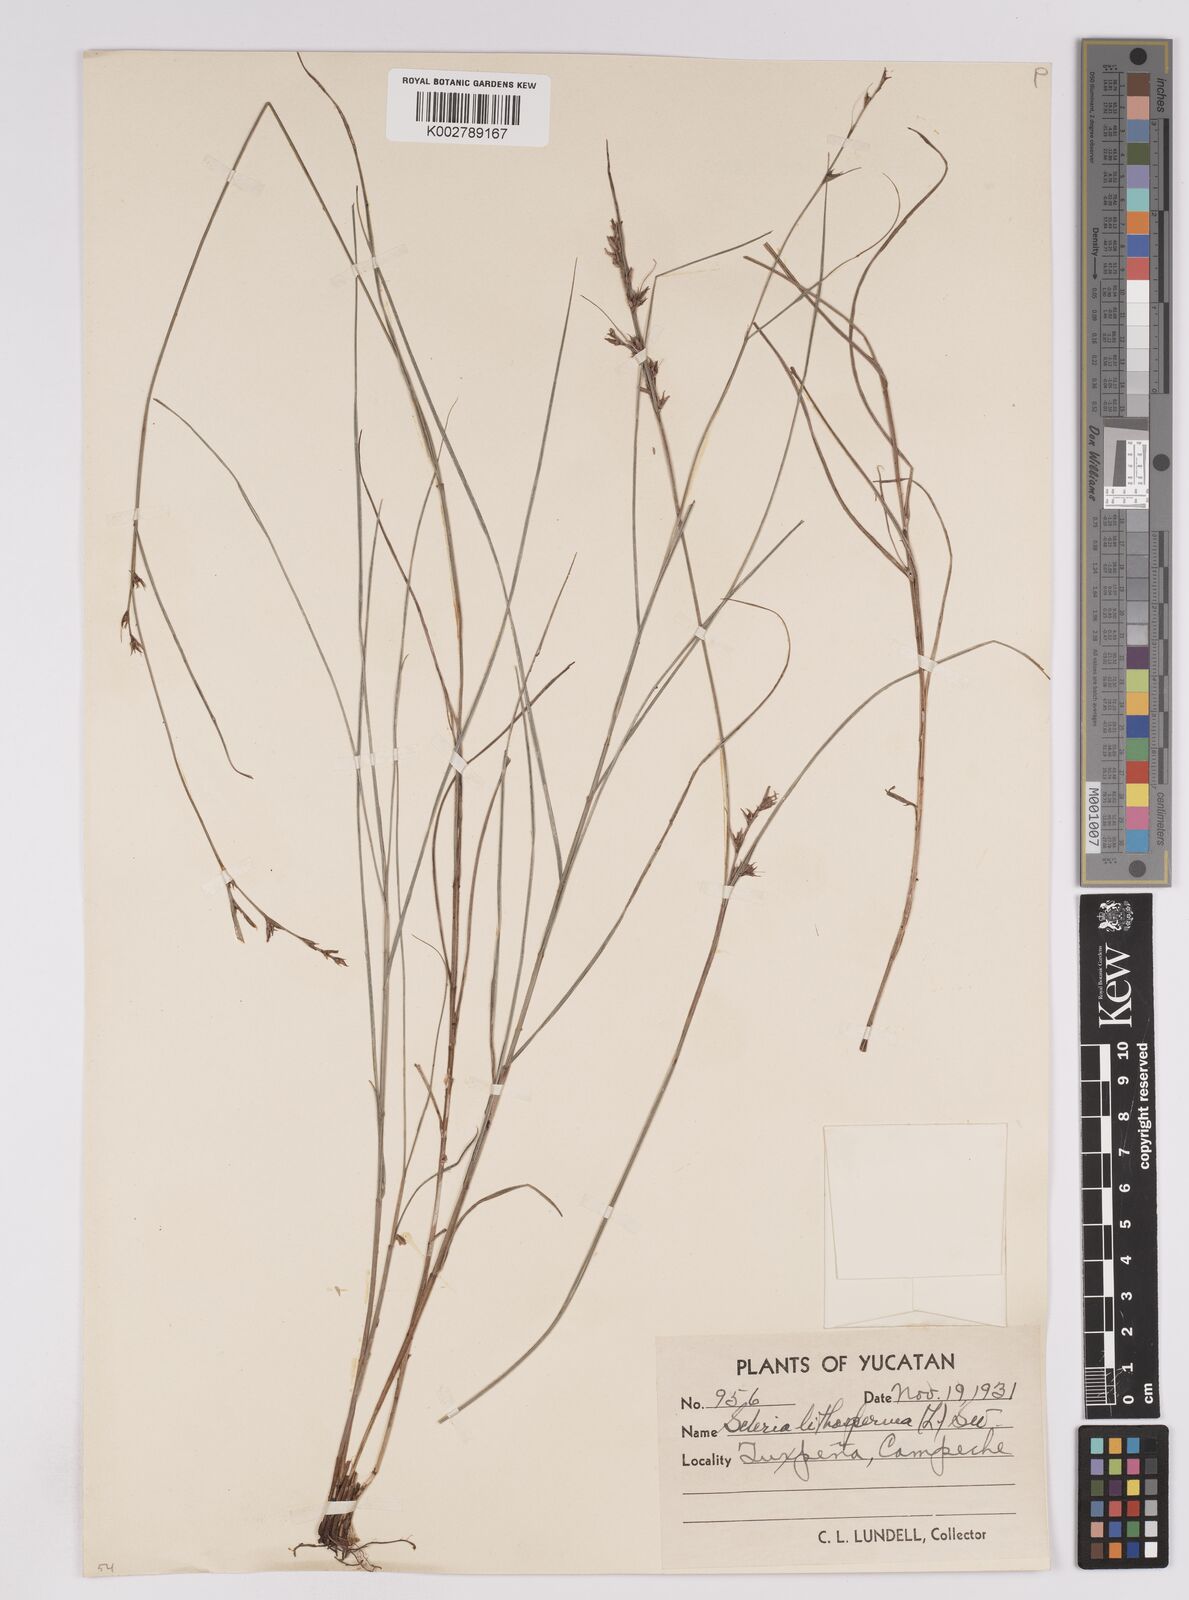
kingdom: Plantae
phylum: Tracheophyta
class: Liliopsida
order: Poales
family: Cyperaceae
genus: Scleria
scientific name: Scleria lithosperma
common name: Florida keys nut-rush
